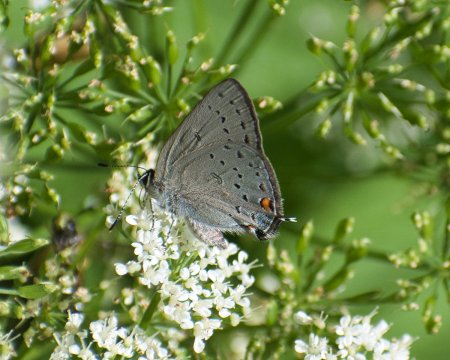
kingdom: Animalia
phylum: Arthropoda
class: Insecta
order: Lepidoptera
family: Lycaenidae
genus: Strymon
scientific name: Strymon sylvinus
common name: Sylvan Hairstreak
